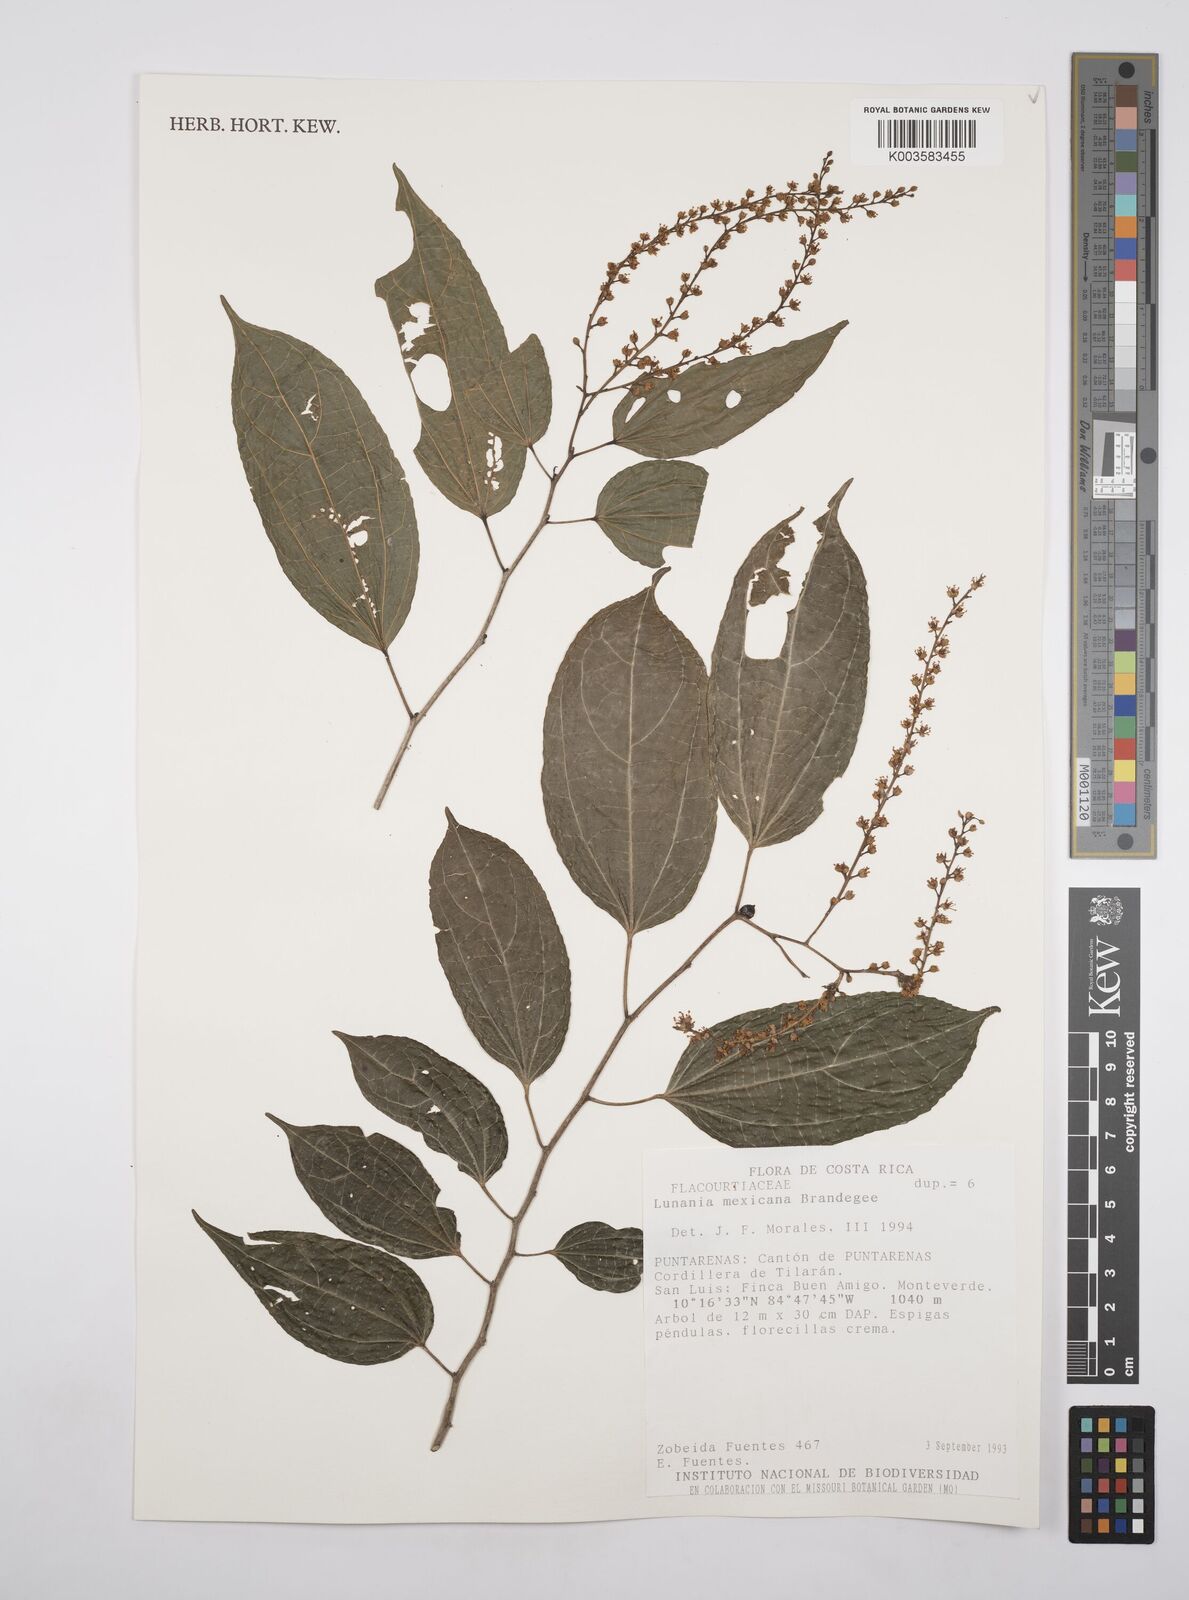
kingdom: Plantae
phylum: Tracheophyta
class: Magnoliopsida
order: Malpighiales
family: Salicaceae
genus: Lunania
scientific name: Lunania mexicana
